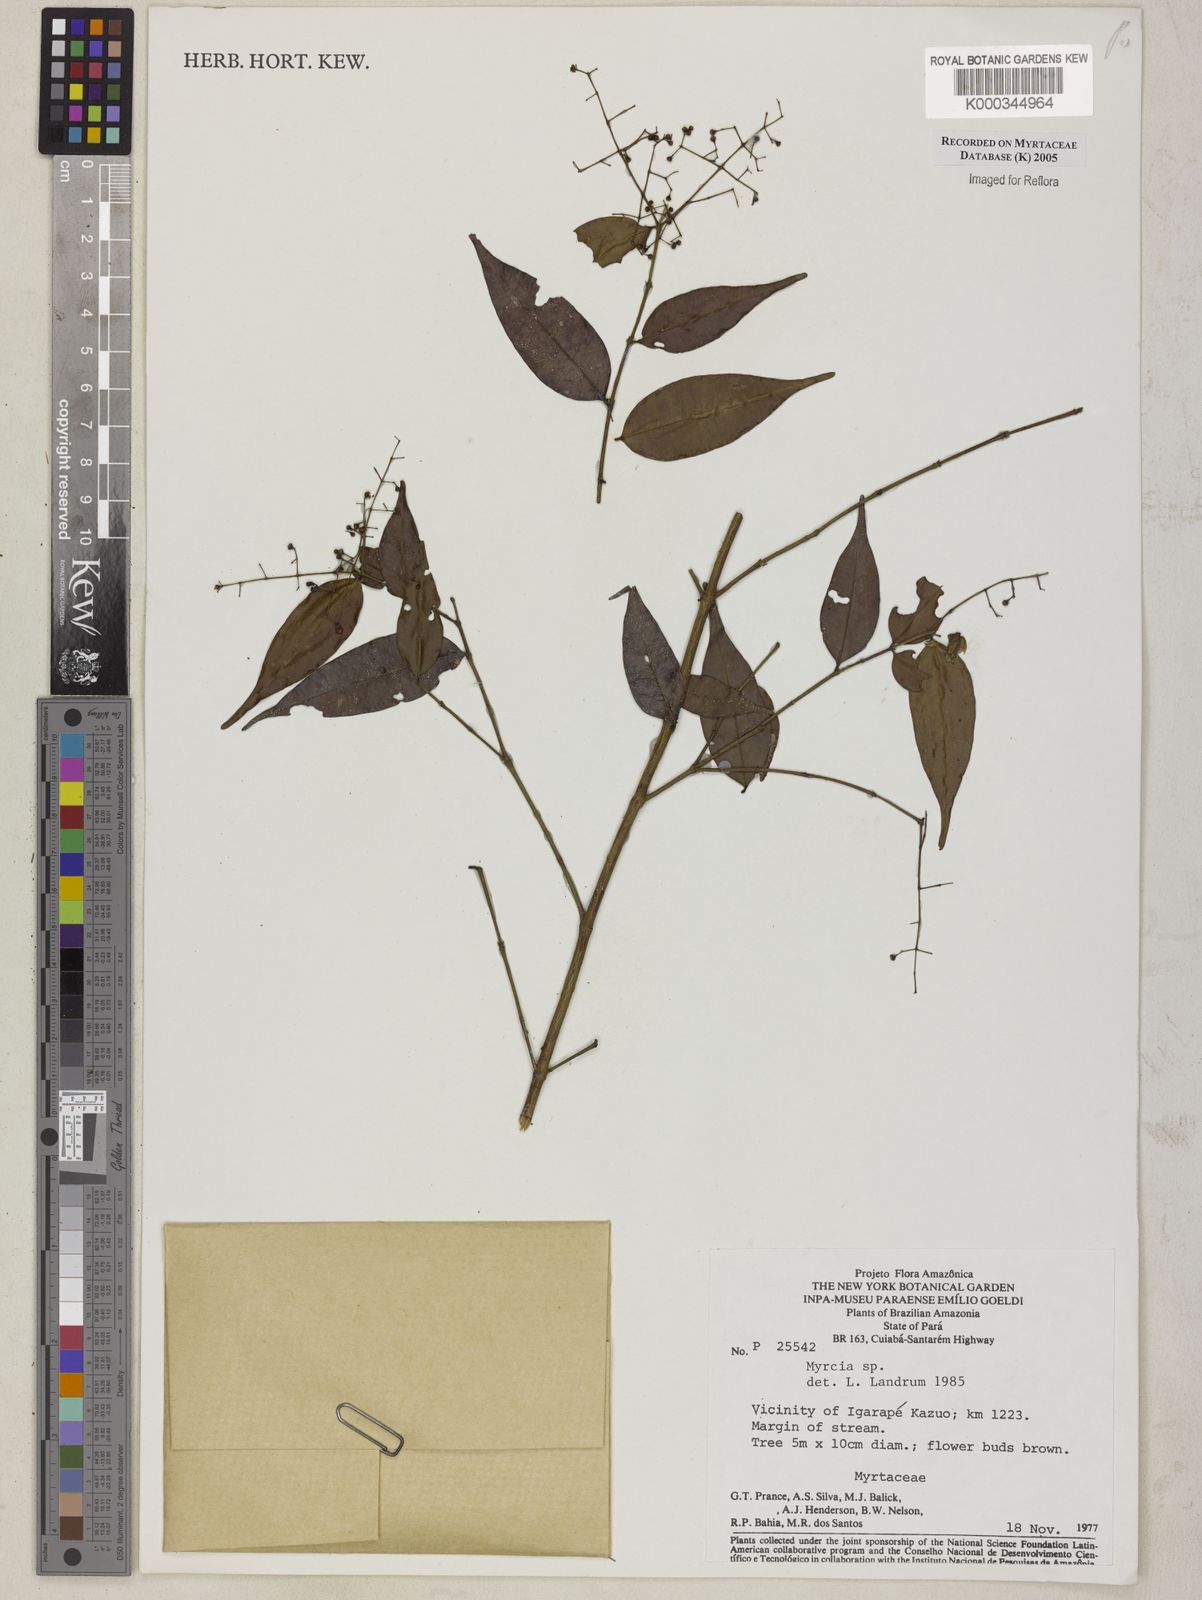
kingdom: Plantae
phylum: Tracheophyta
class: Magnoliopsida
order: Myrtales
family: Myrtaceae
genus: Myrcia
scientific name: Myrcia
